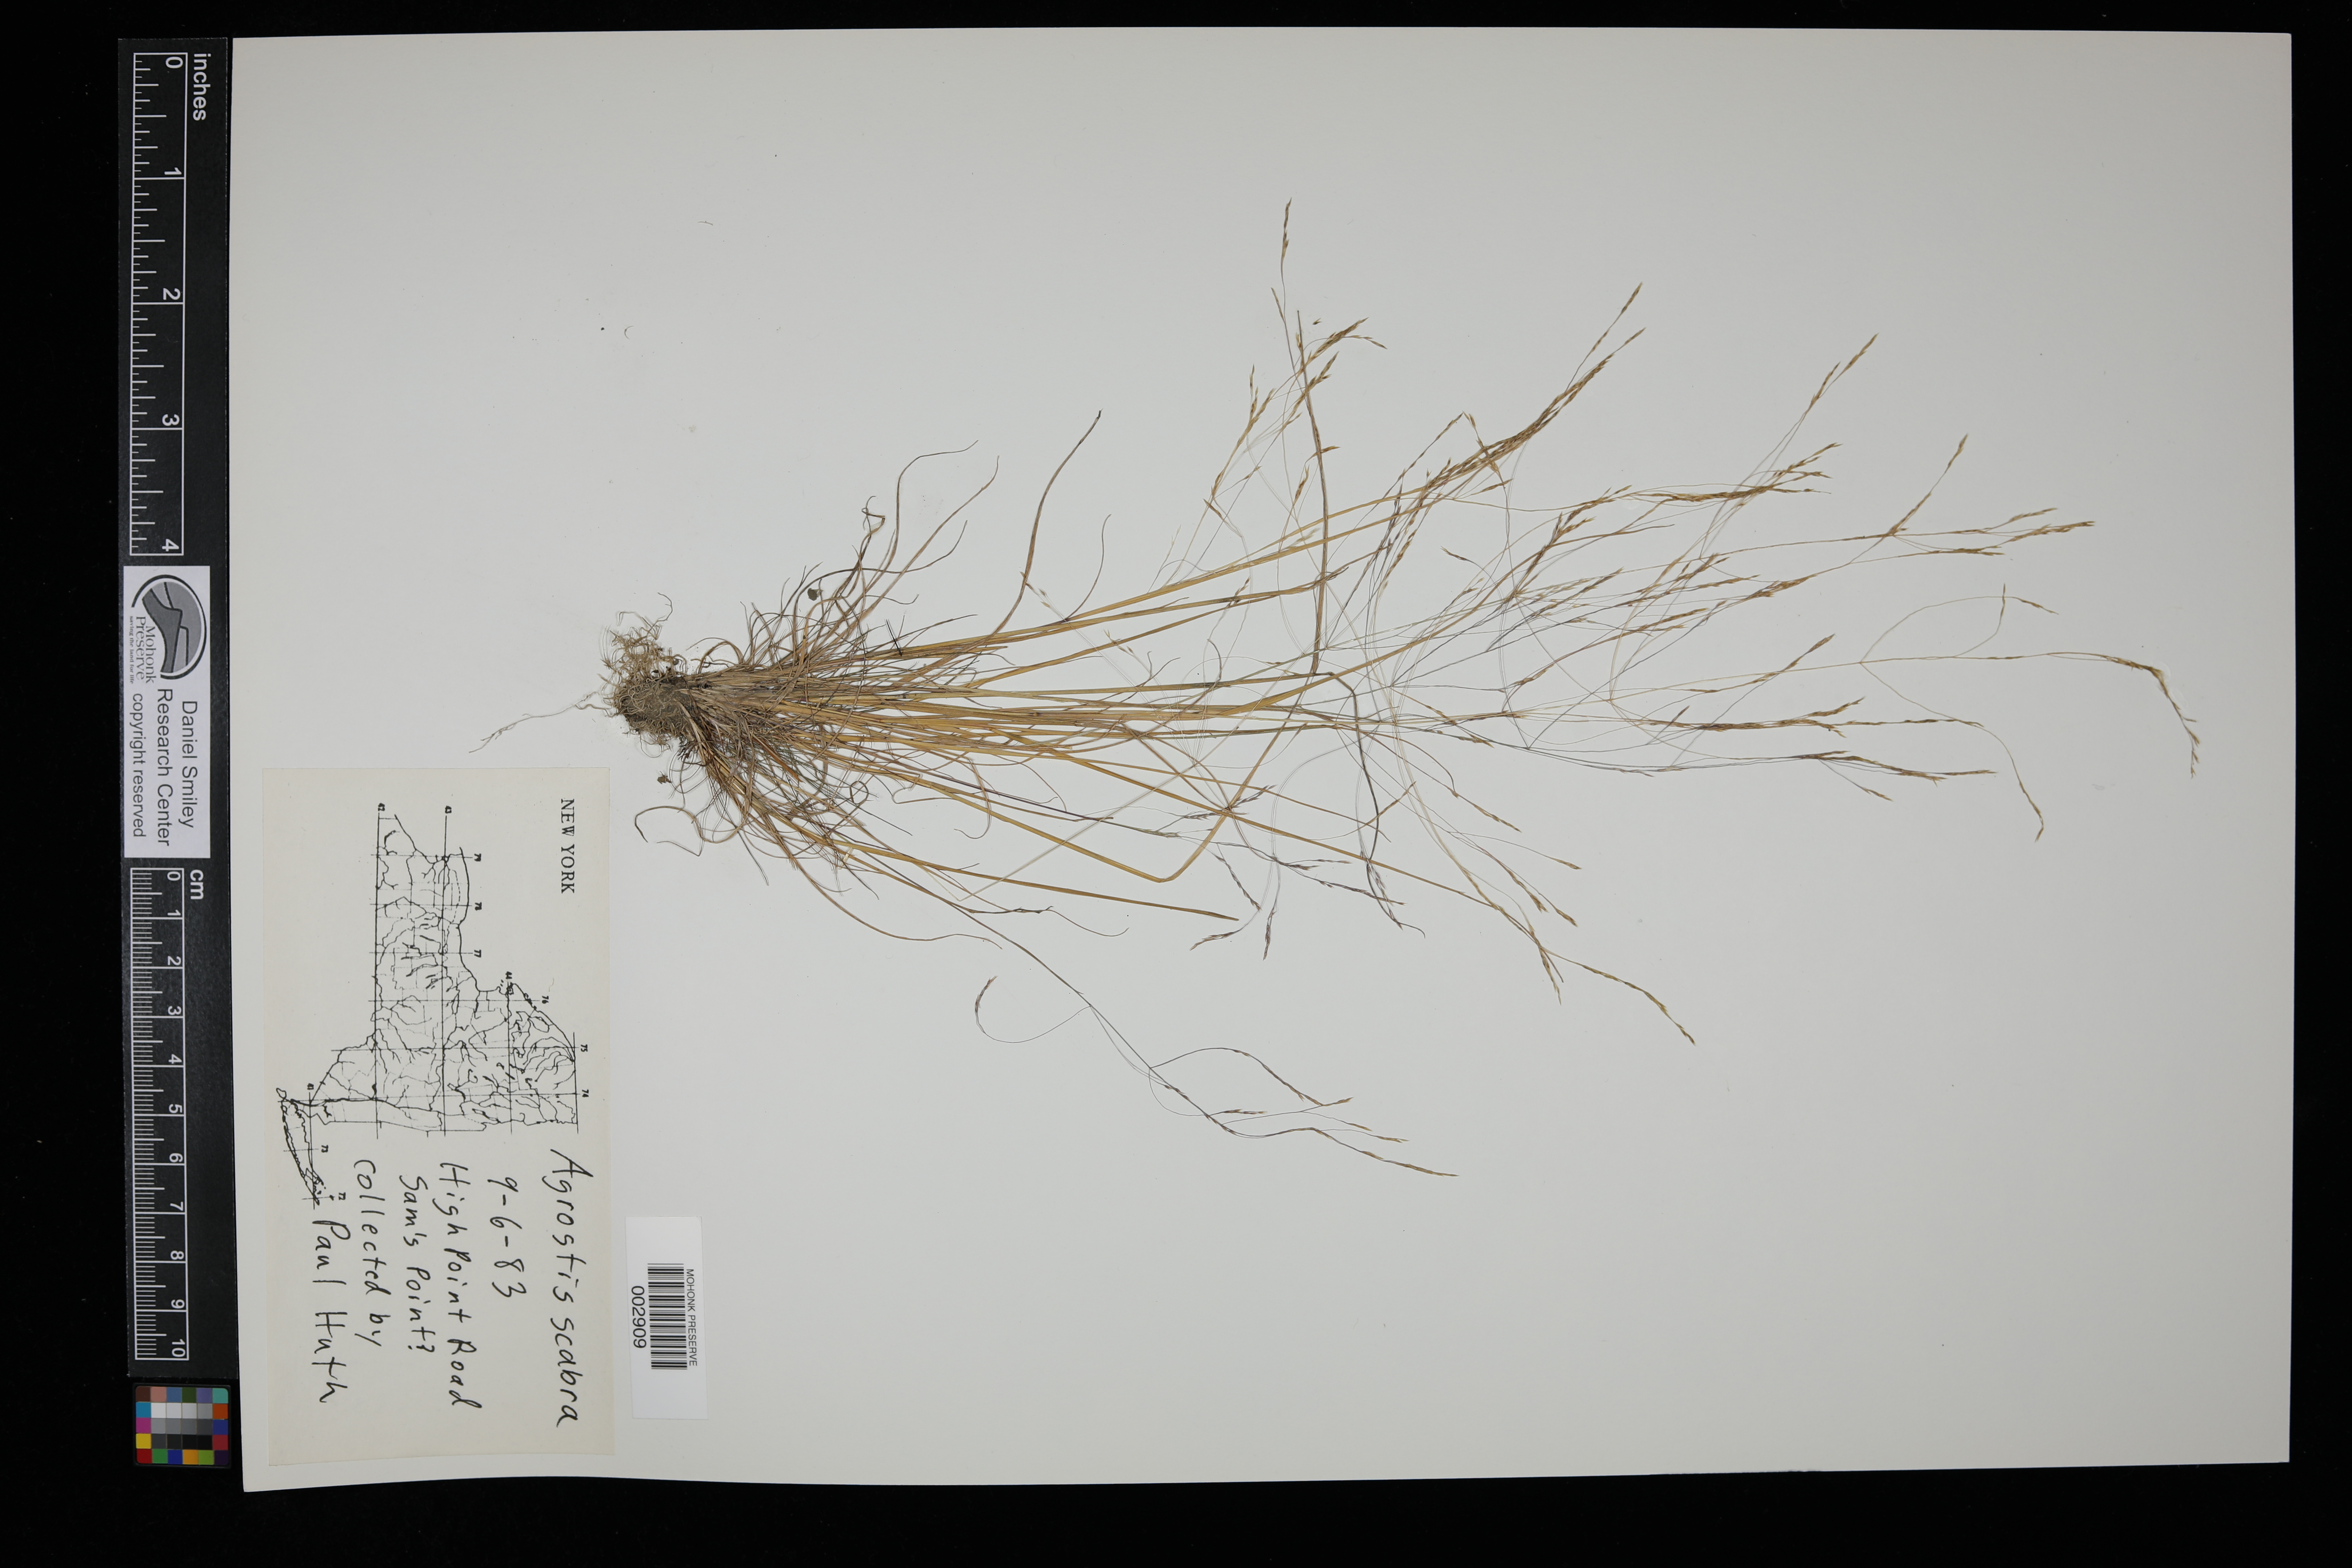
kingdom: Plantae
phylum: Tracheophyta
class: Liliopsida
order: Poales
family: Poaceae
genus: Agrostis
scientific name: Agrostis perennans
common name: Autumn bent
